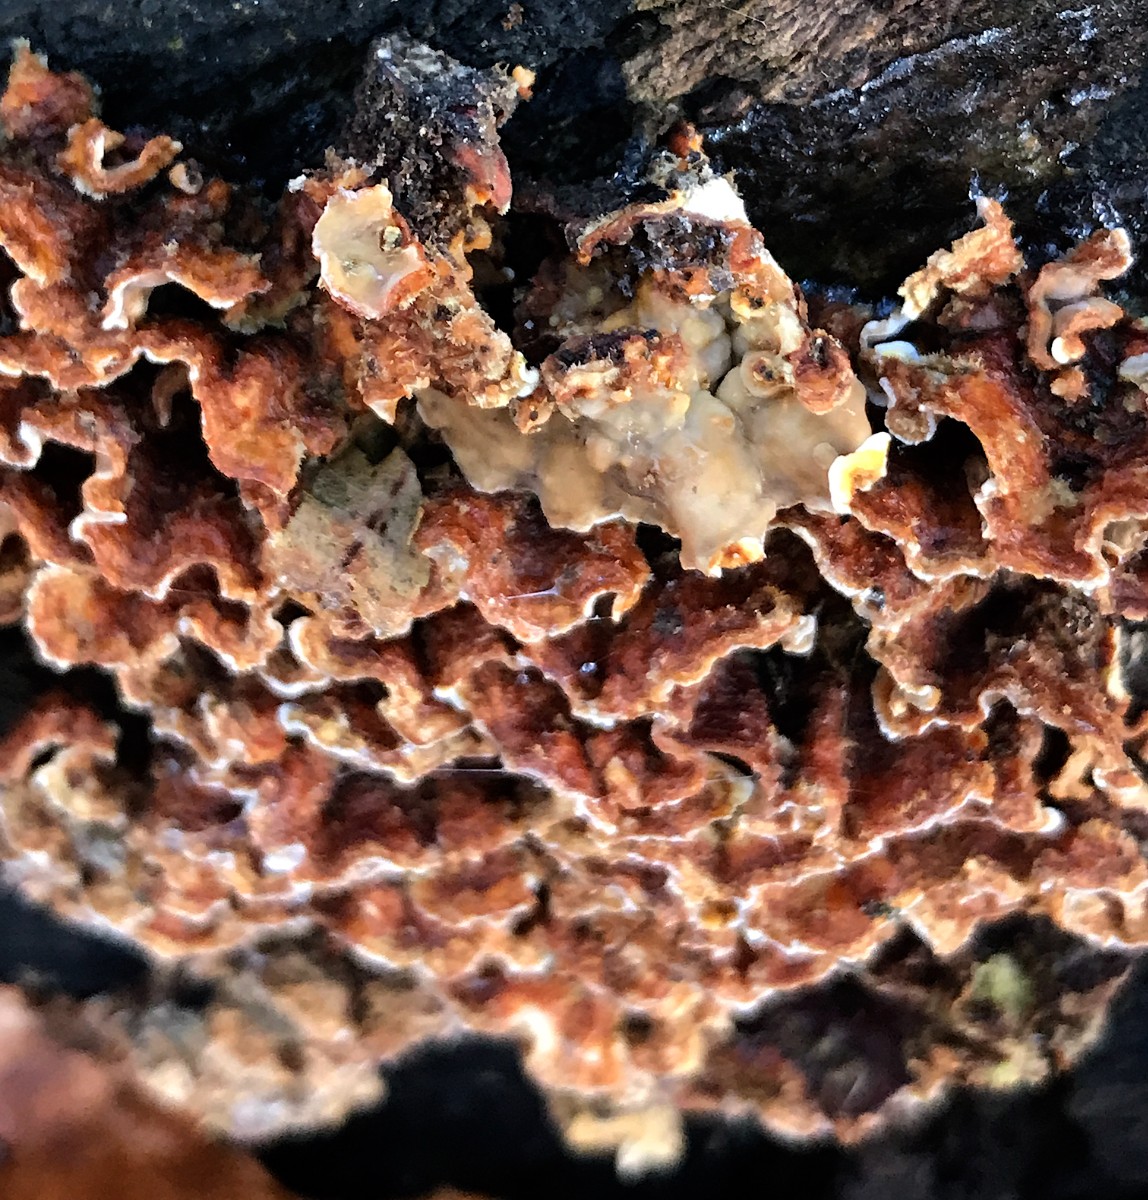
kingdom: Fungi
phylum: Basidiomycota
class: Agaricomycetes
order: Russulales
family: Stereaceae
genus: Stereum
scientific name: Stereum hirsutum
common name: håret lædersvamp
